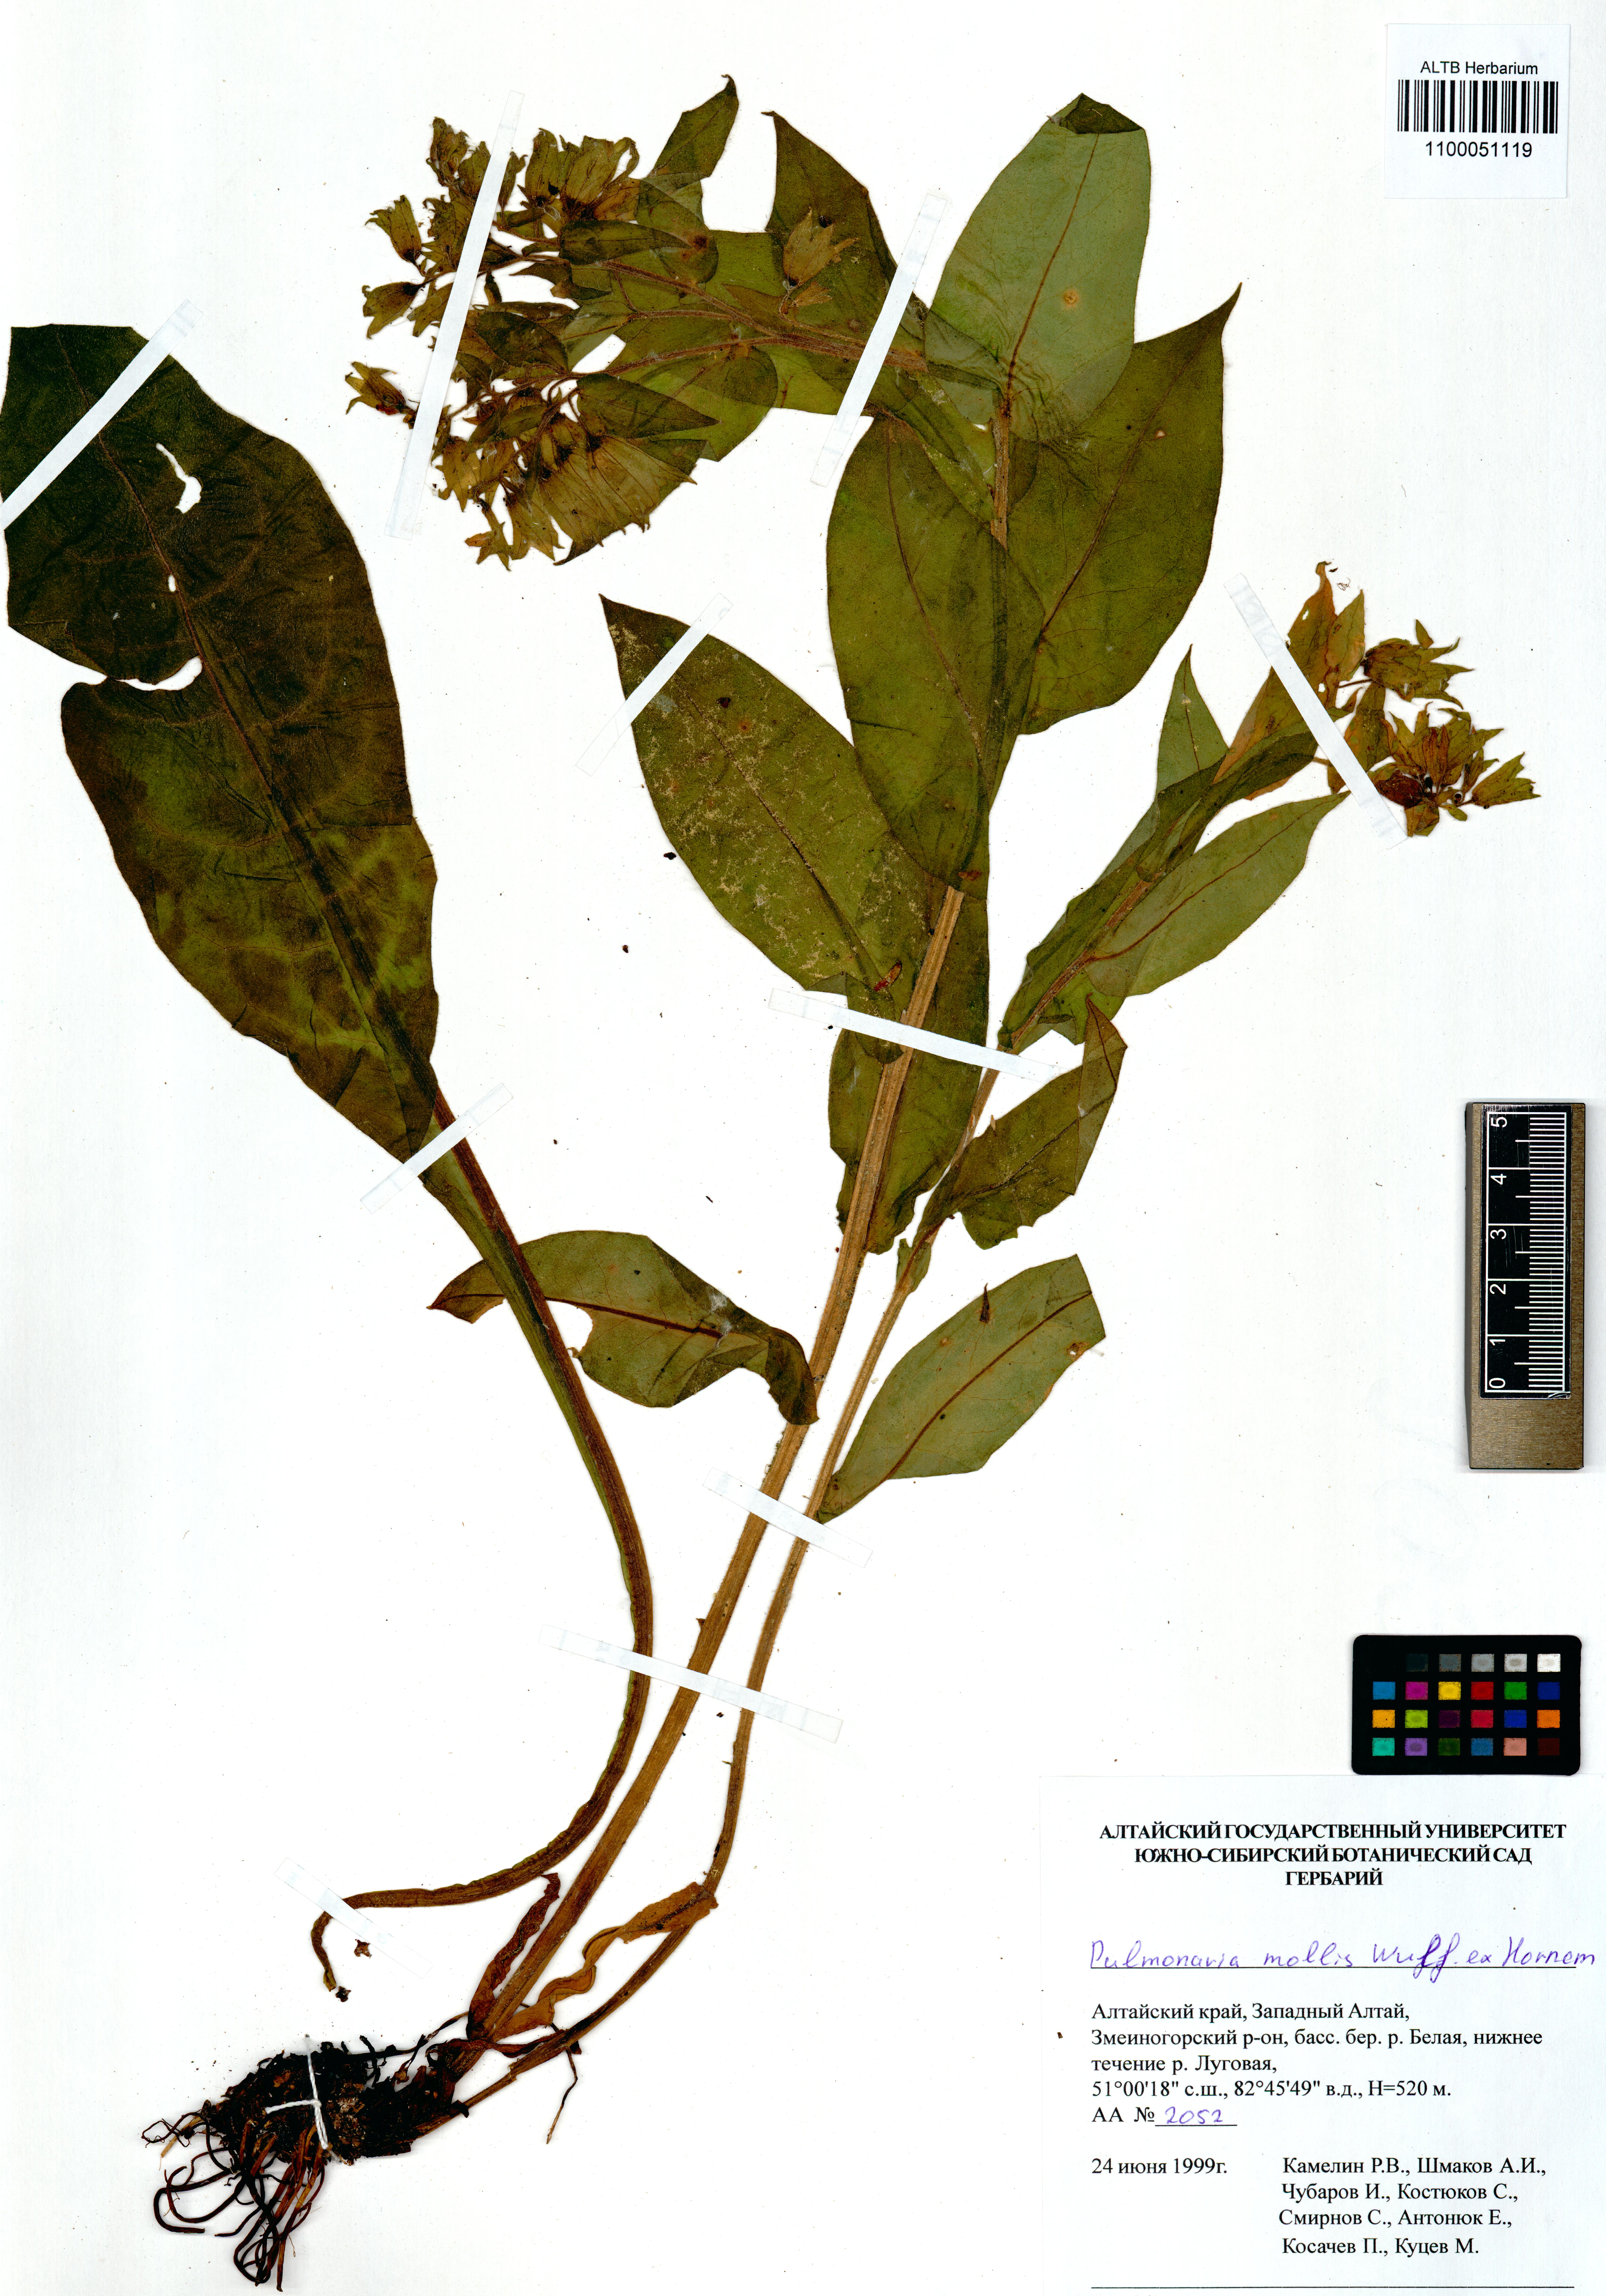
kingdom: Plantae
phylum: Tracheophyta
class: Magnoliopsida
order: Boraginales
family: Boraginaceae
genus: Pulmonaria
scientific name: Pulmonaria mollis
